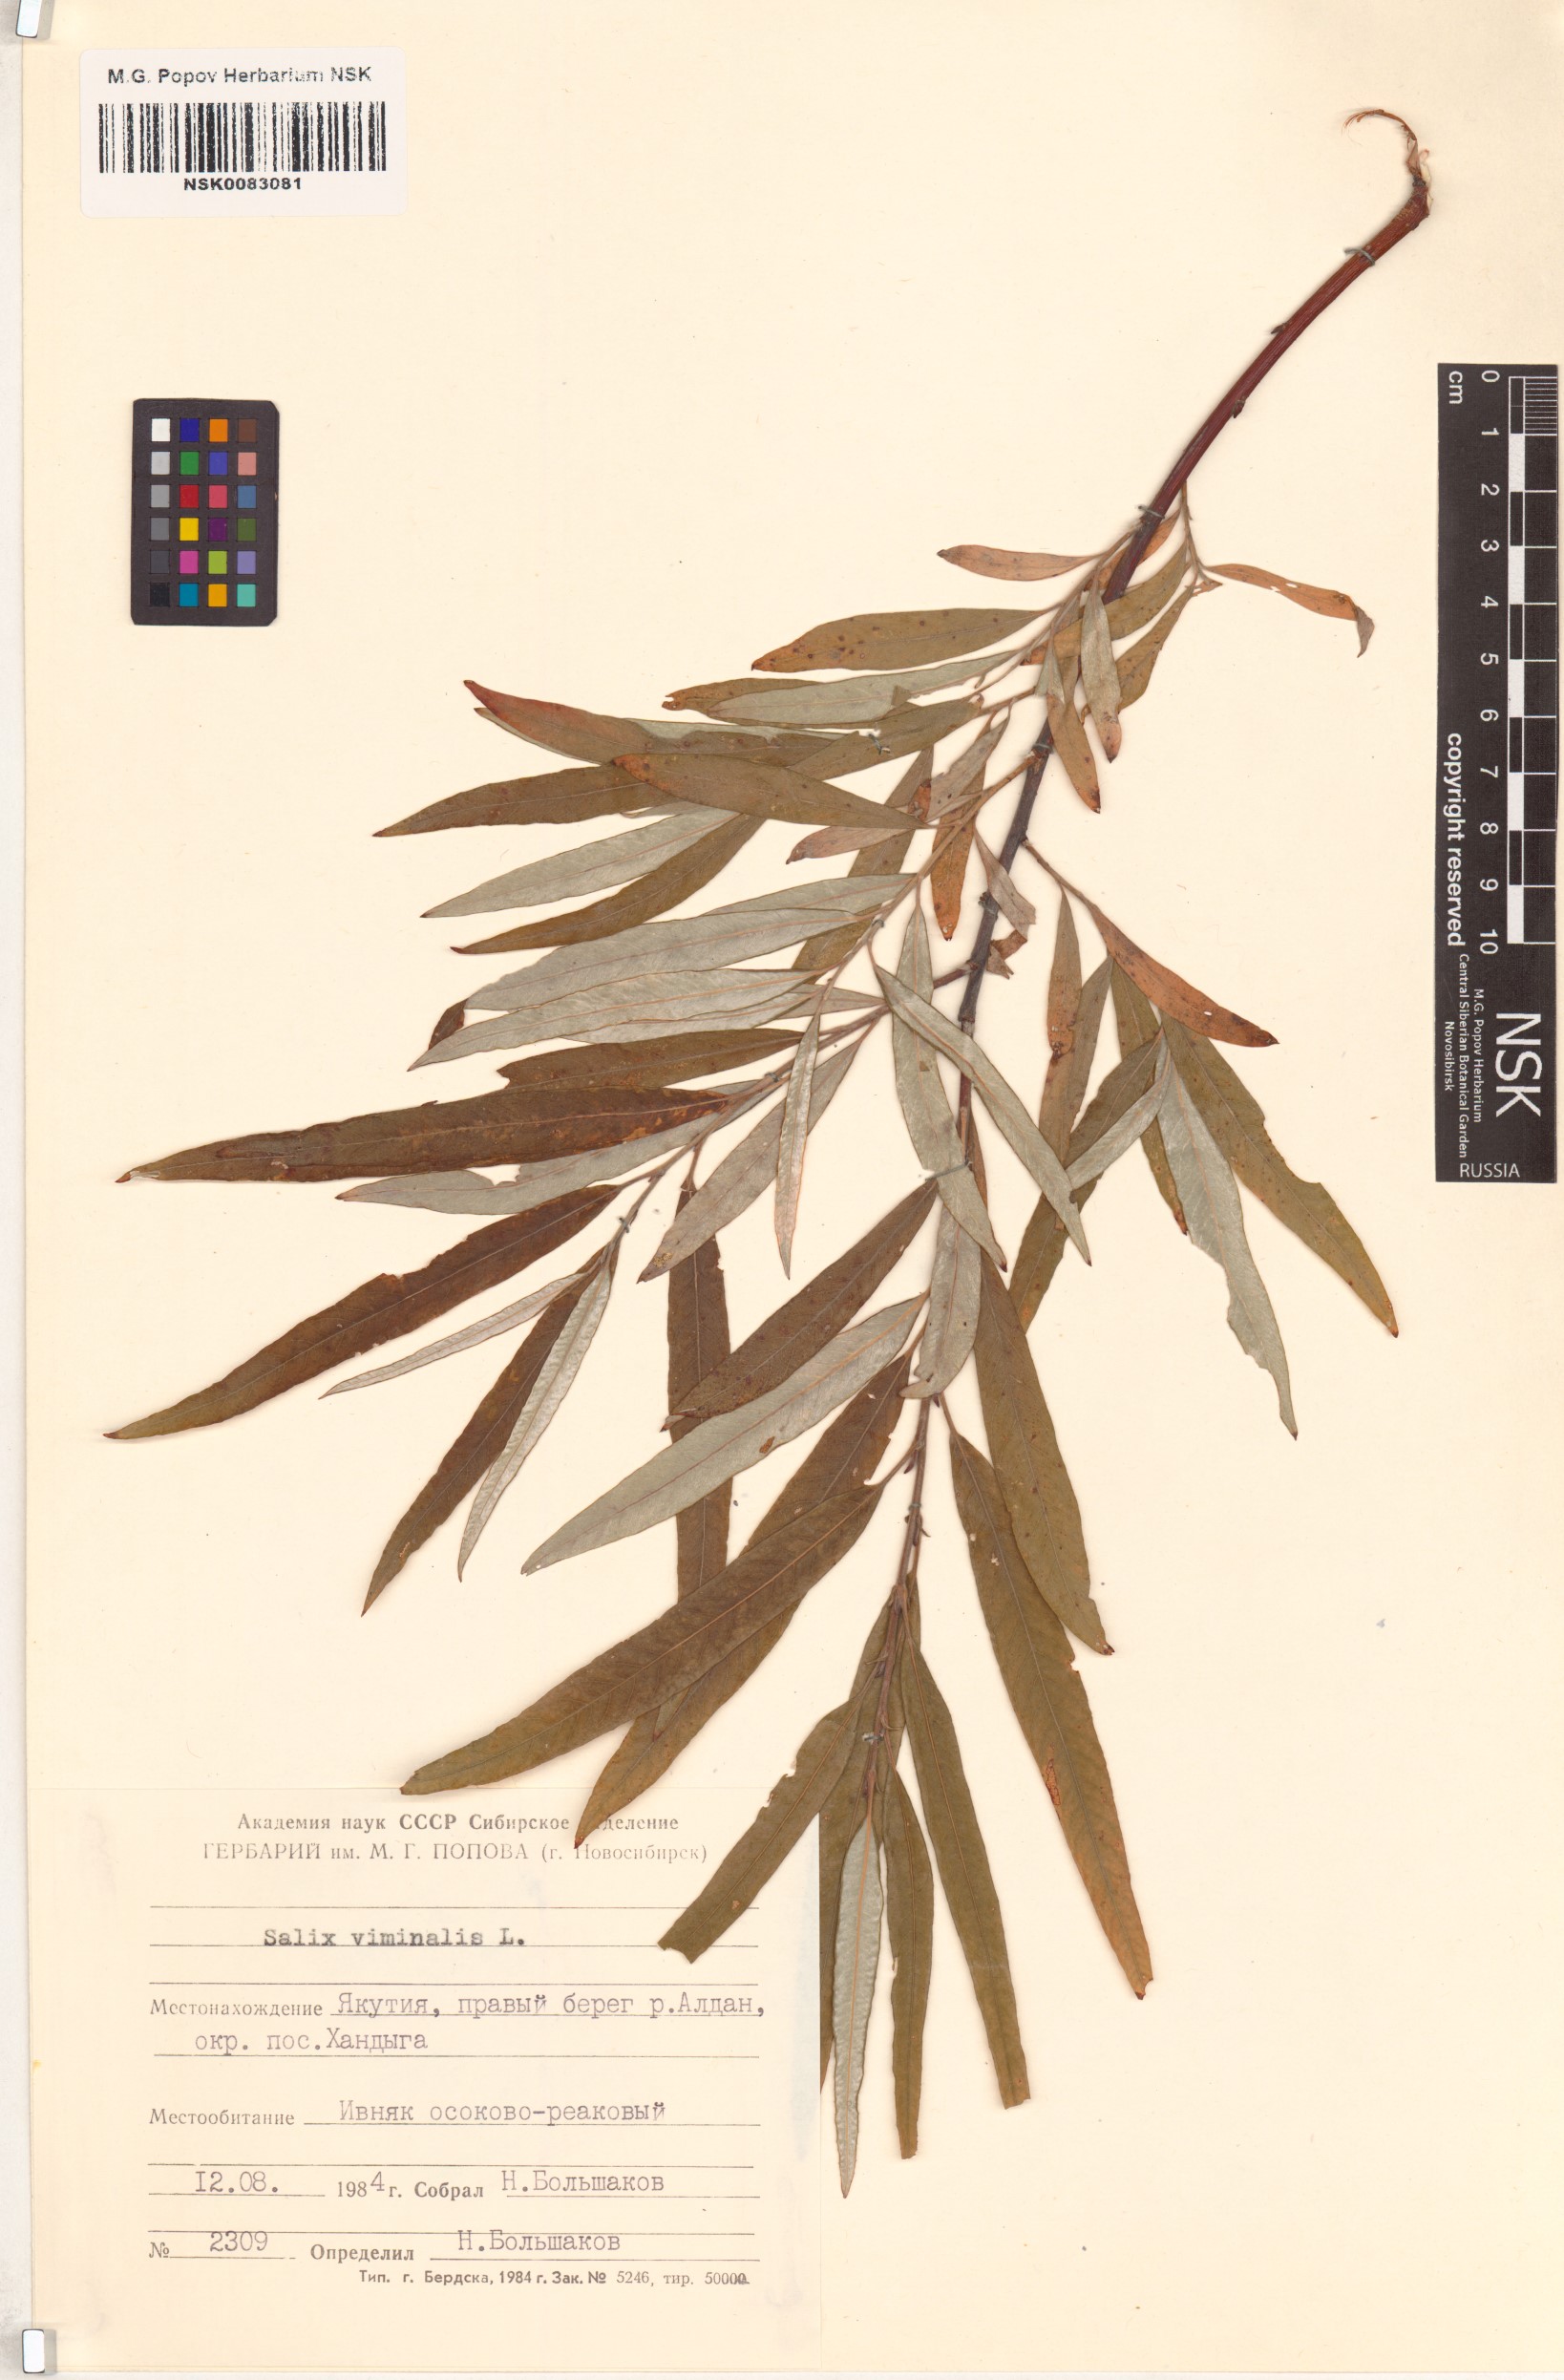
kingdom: Plantae
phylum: Tracheophyta
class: Magnoliopsida
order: Malpighiales
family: Salicaceae
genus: Salix
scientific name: Salix viminalis
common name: Osier
